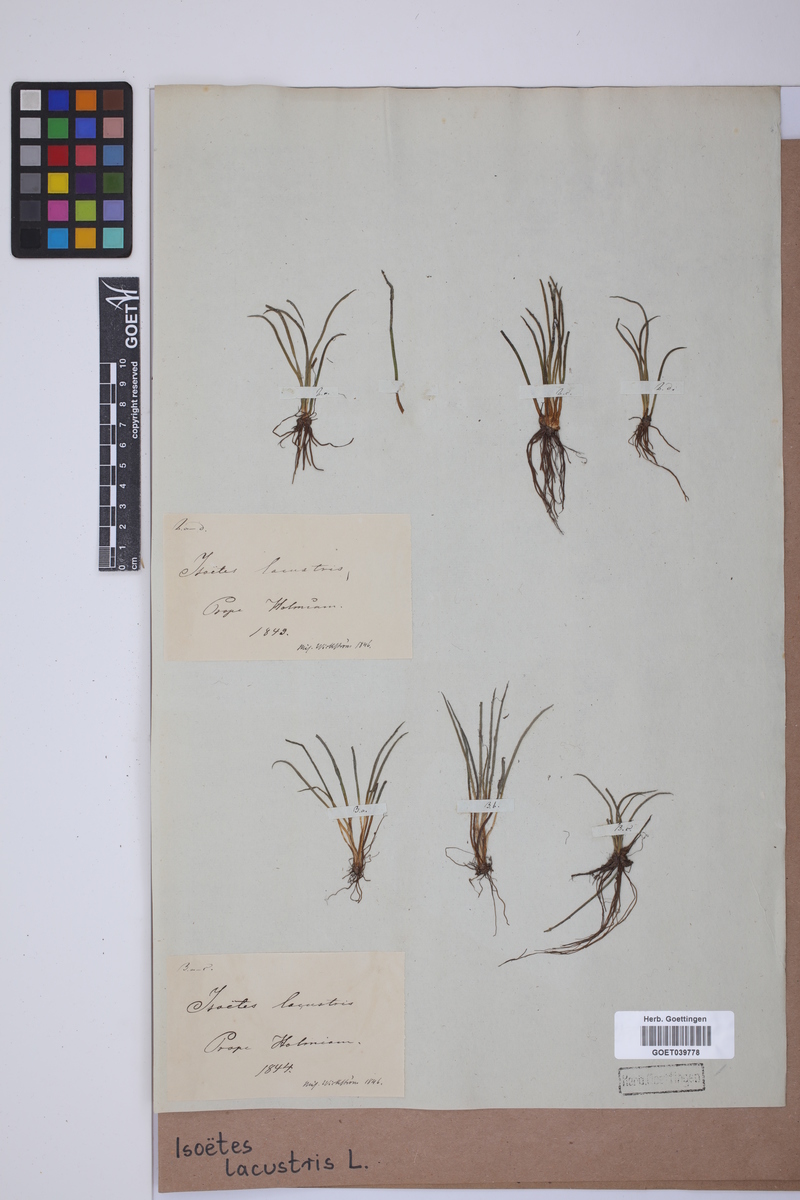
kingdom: Plantae
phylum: Tracheophyta
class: Lycopodiopsida
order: Isoetales
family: Isoetaceae
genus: Isoetes
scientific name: Isoetes lacustris
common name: Common quillwort
